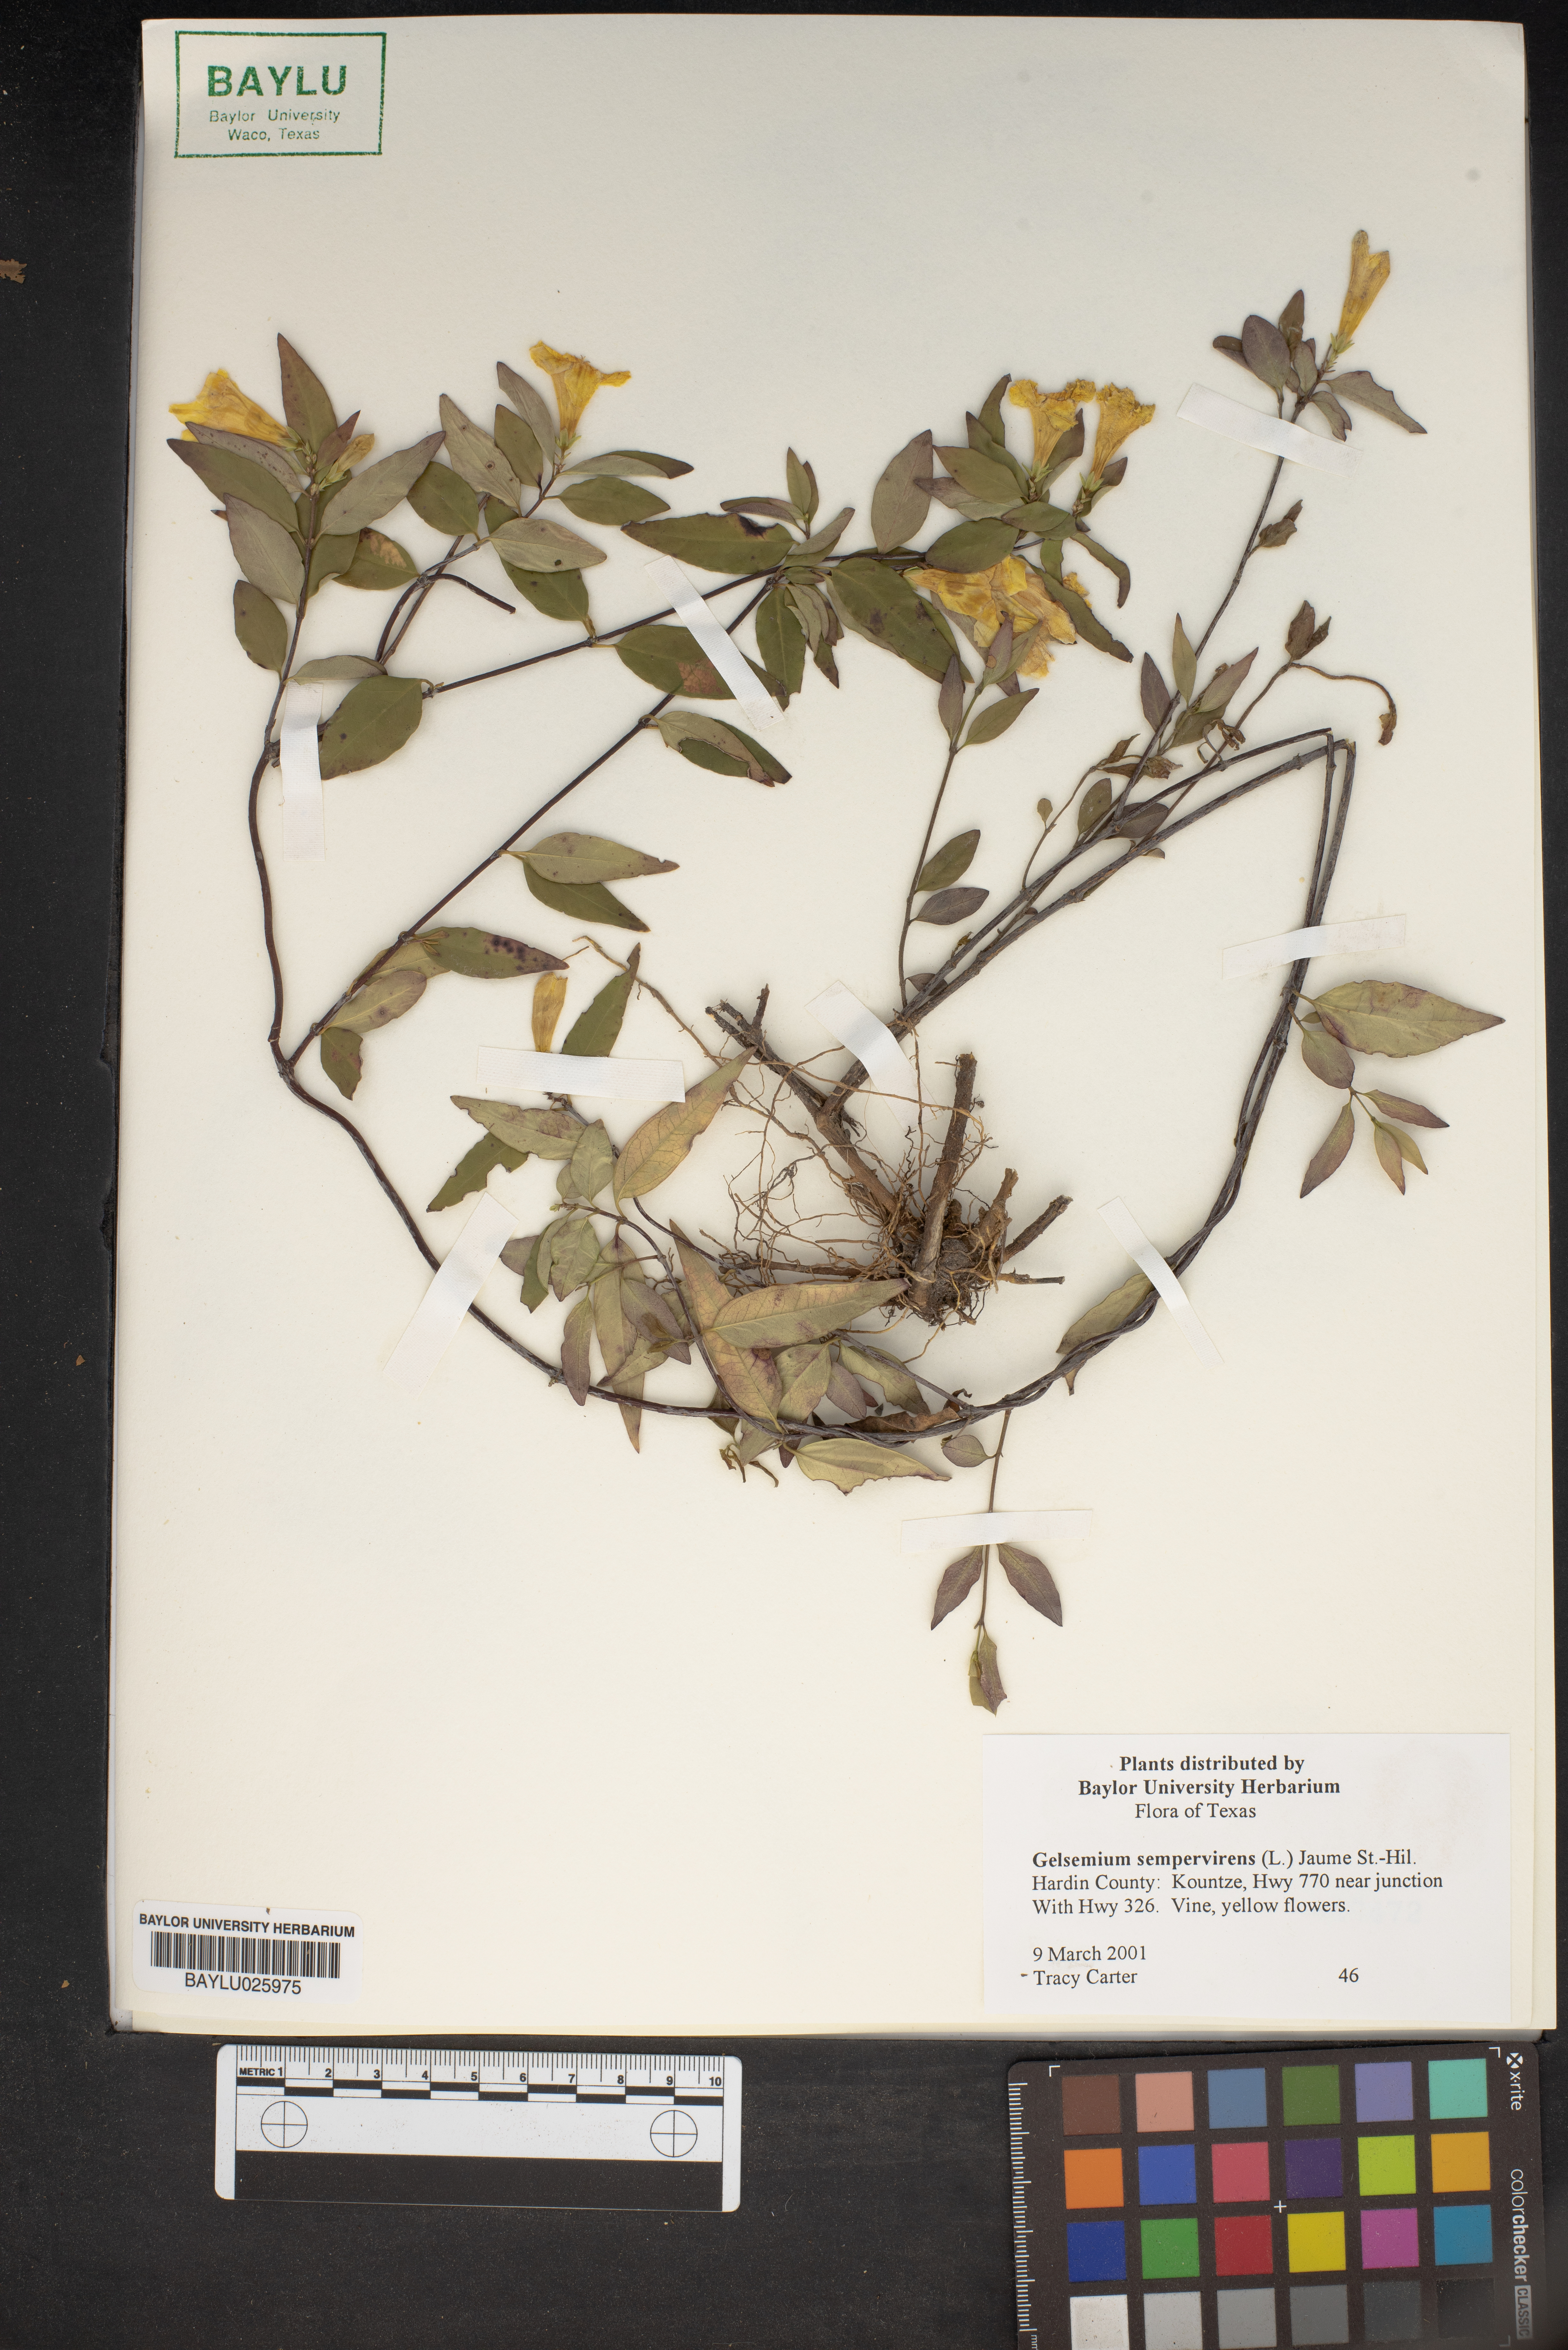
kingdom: Plantae
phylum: Tracheophyta
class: Magnoliopsida
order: Gentianales
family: Gelsemiaceae
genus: Gelsemium
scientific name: Gelsemium sempervirens
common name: Carolina-jasmine
